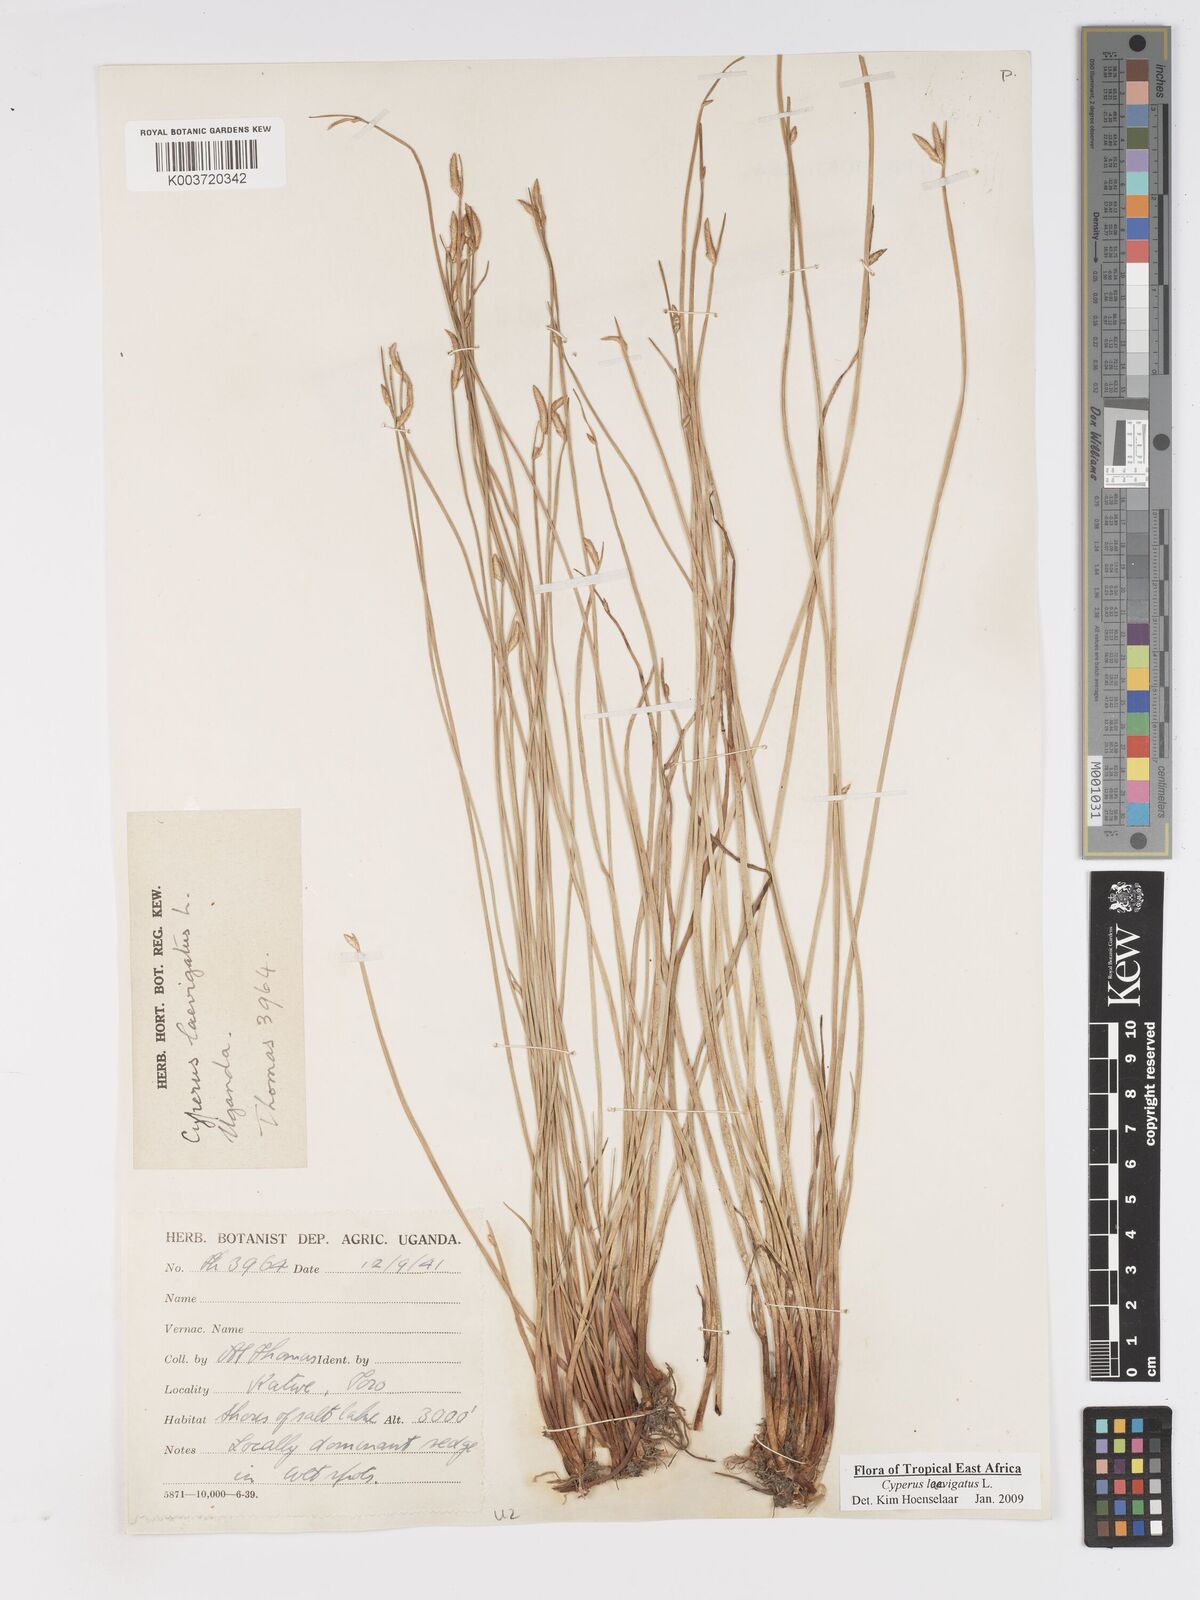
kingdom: Plantae
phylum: Tracheophyta
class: Liliopsida
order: Poales
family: Cyperaceae
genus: Cyperus
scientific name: Cyperus laevigatus
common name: Smooth flat sedge
